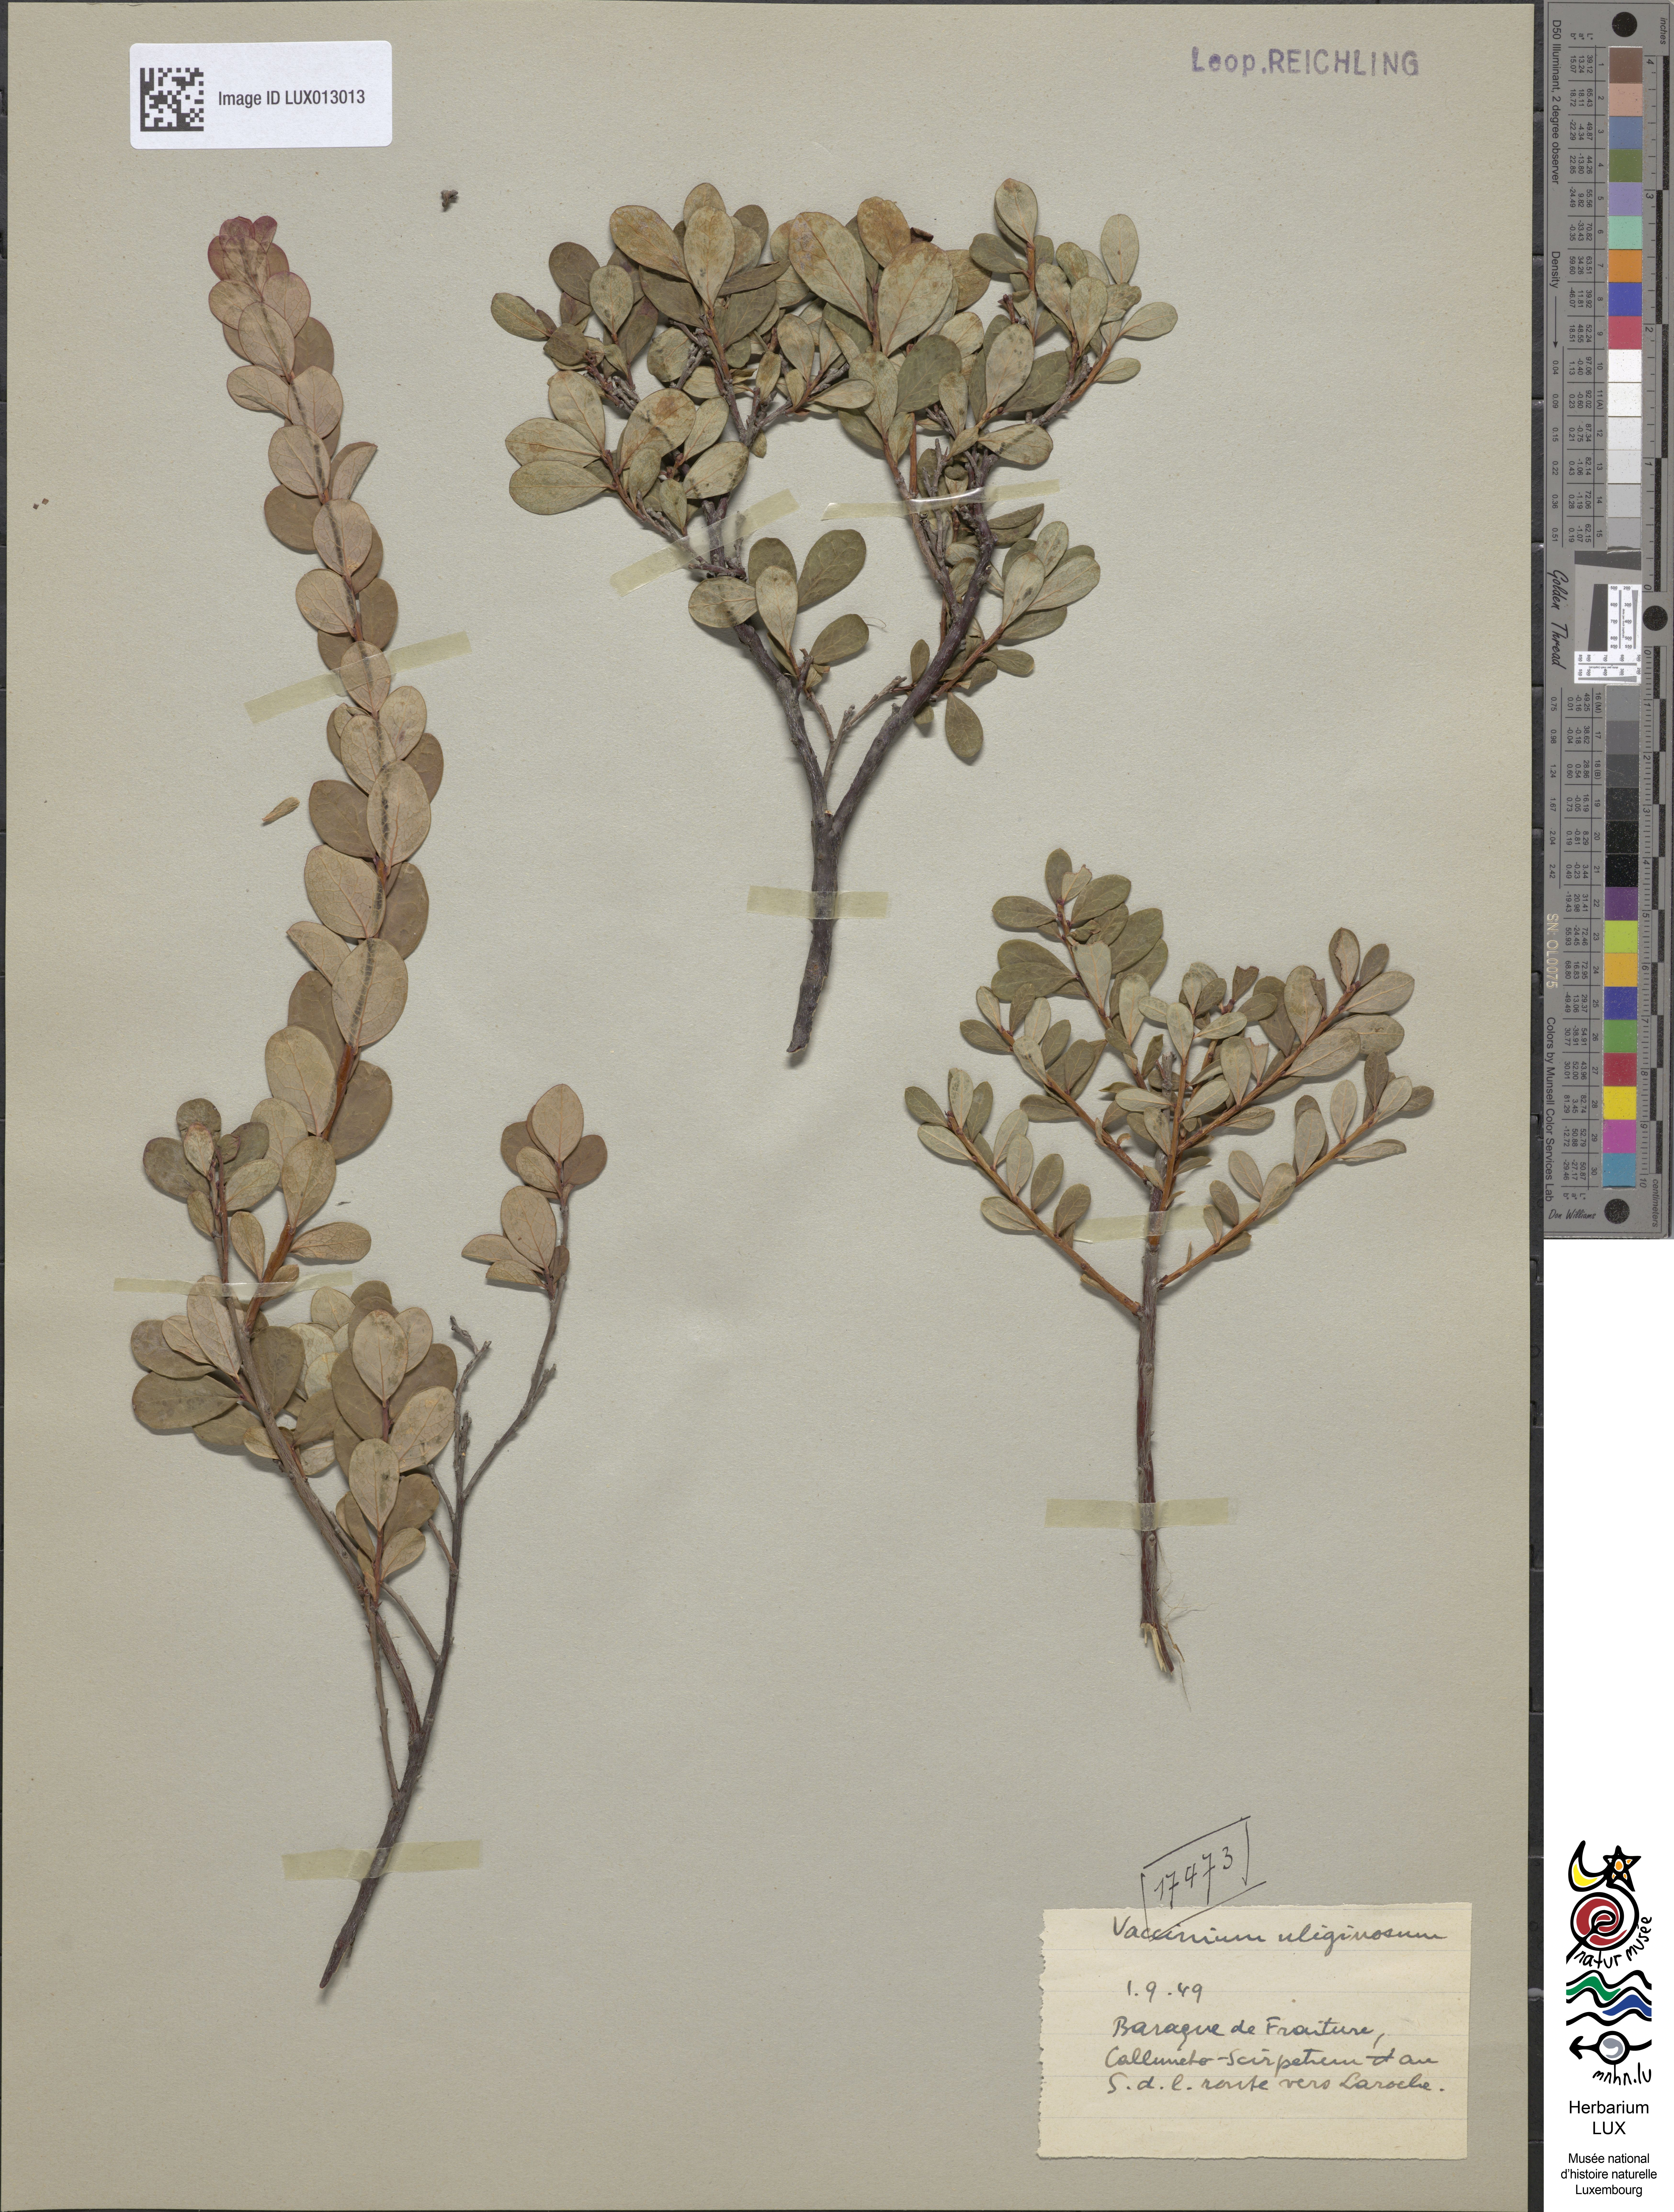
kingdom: Plantae
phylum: Tracheophyta
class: Magnoliopsida
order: Ericales
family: Ericaceae
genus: Vaccinium
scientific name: Vaccinium uliginosum
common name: Bog bilberry
